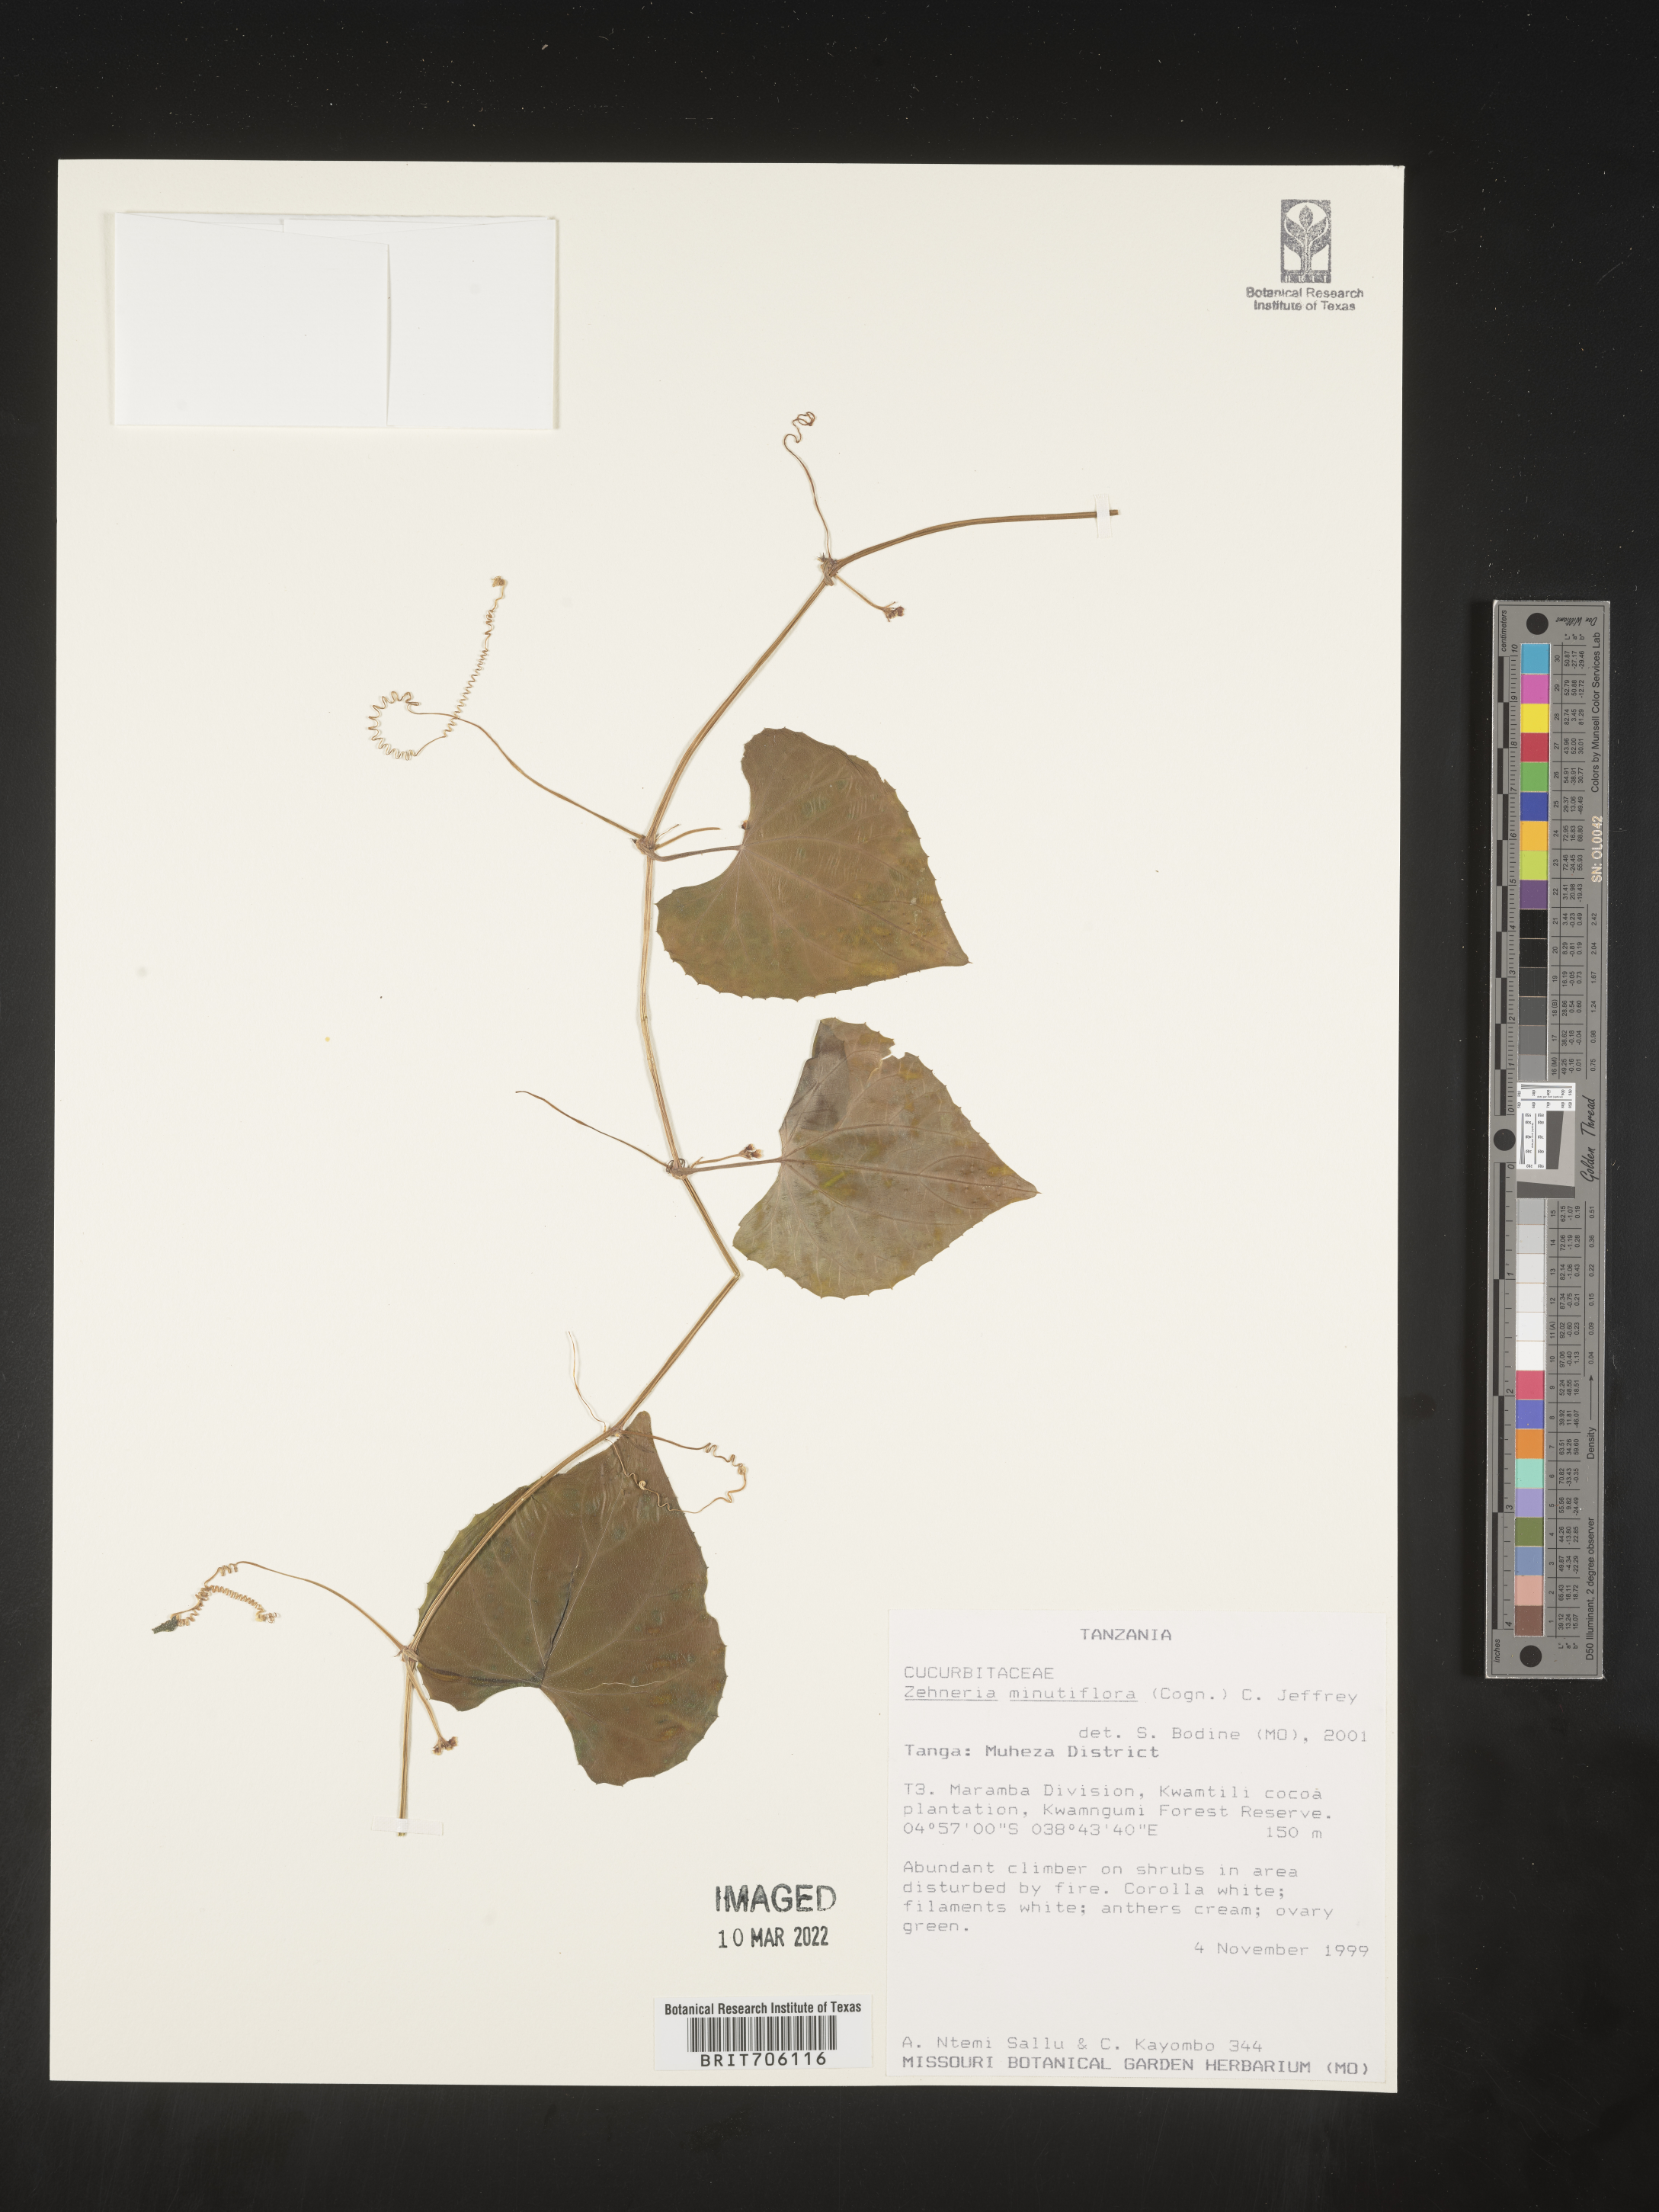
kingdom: Plantae
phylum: Tracheophyta
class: Magnoliopsida
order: Cucurbitales
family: Cucurbitaceae
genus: Zehneria
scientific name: Zehneria
